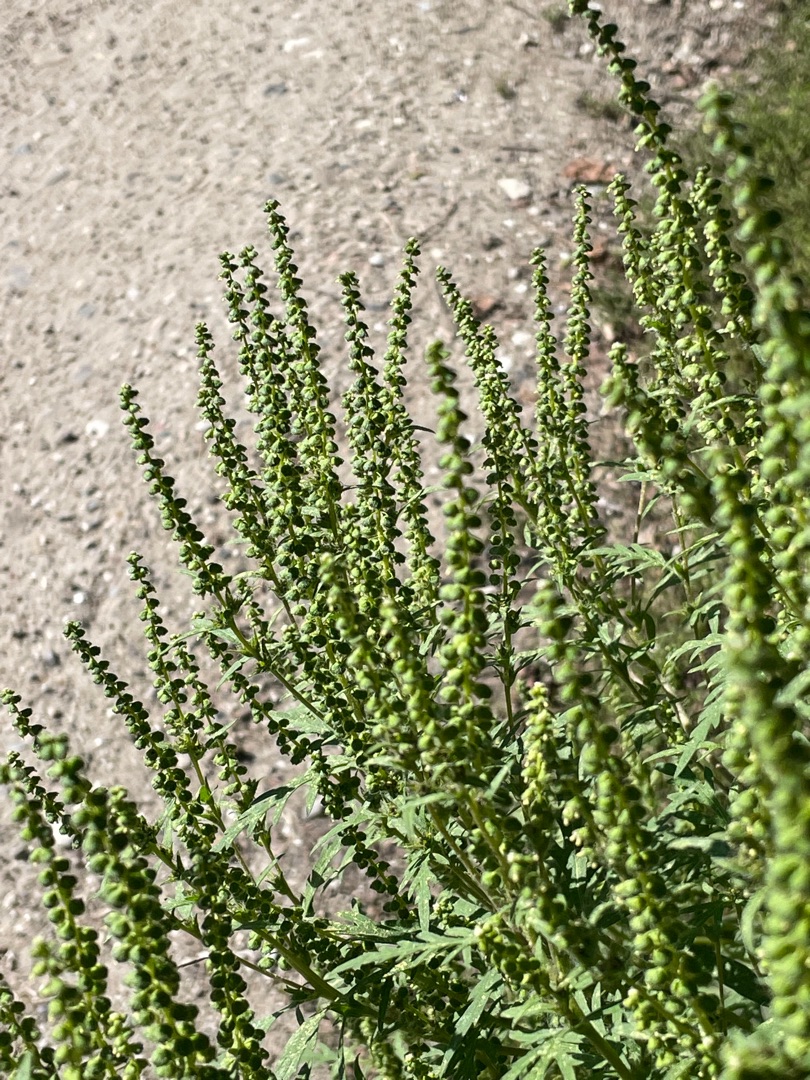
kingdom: Plantae
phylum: Tracheophyta
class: Magnoliopsida
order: Asterales
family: Asteraceae
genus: Ambrosia
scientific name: Ambrosia artemisiifolia
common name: Bynke-ambrosie
